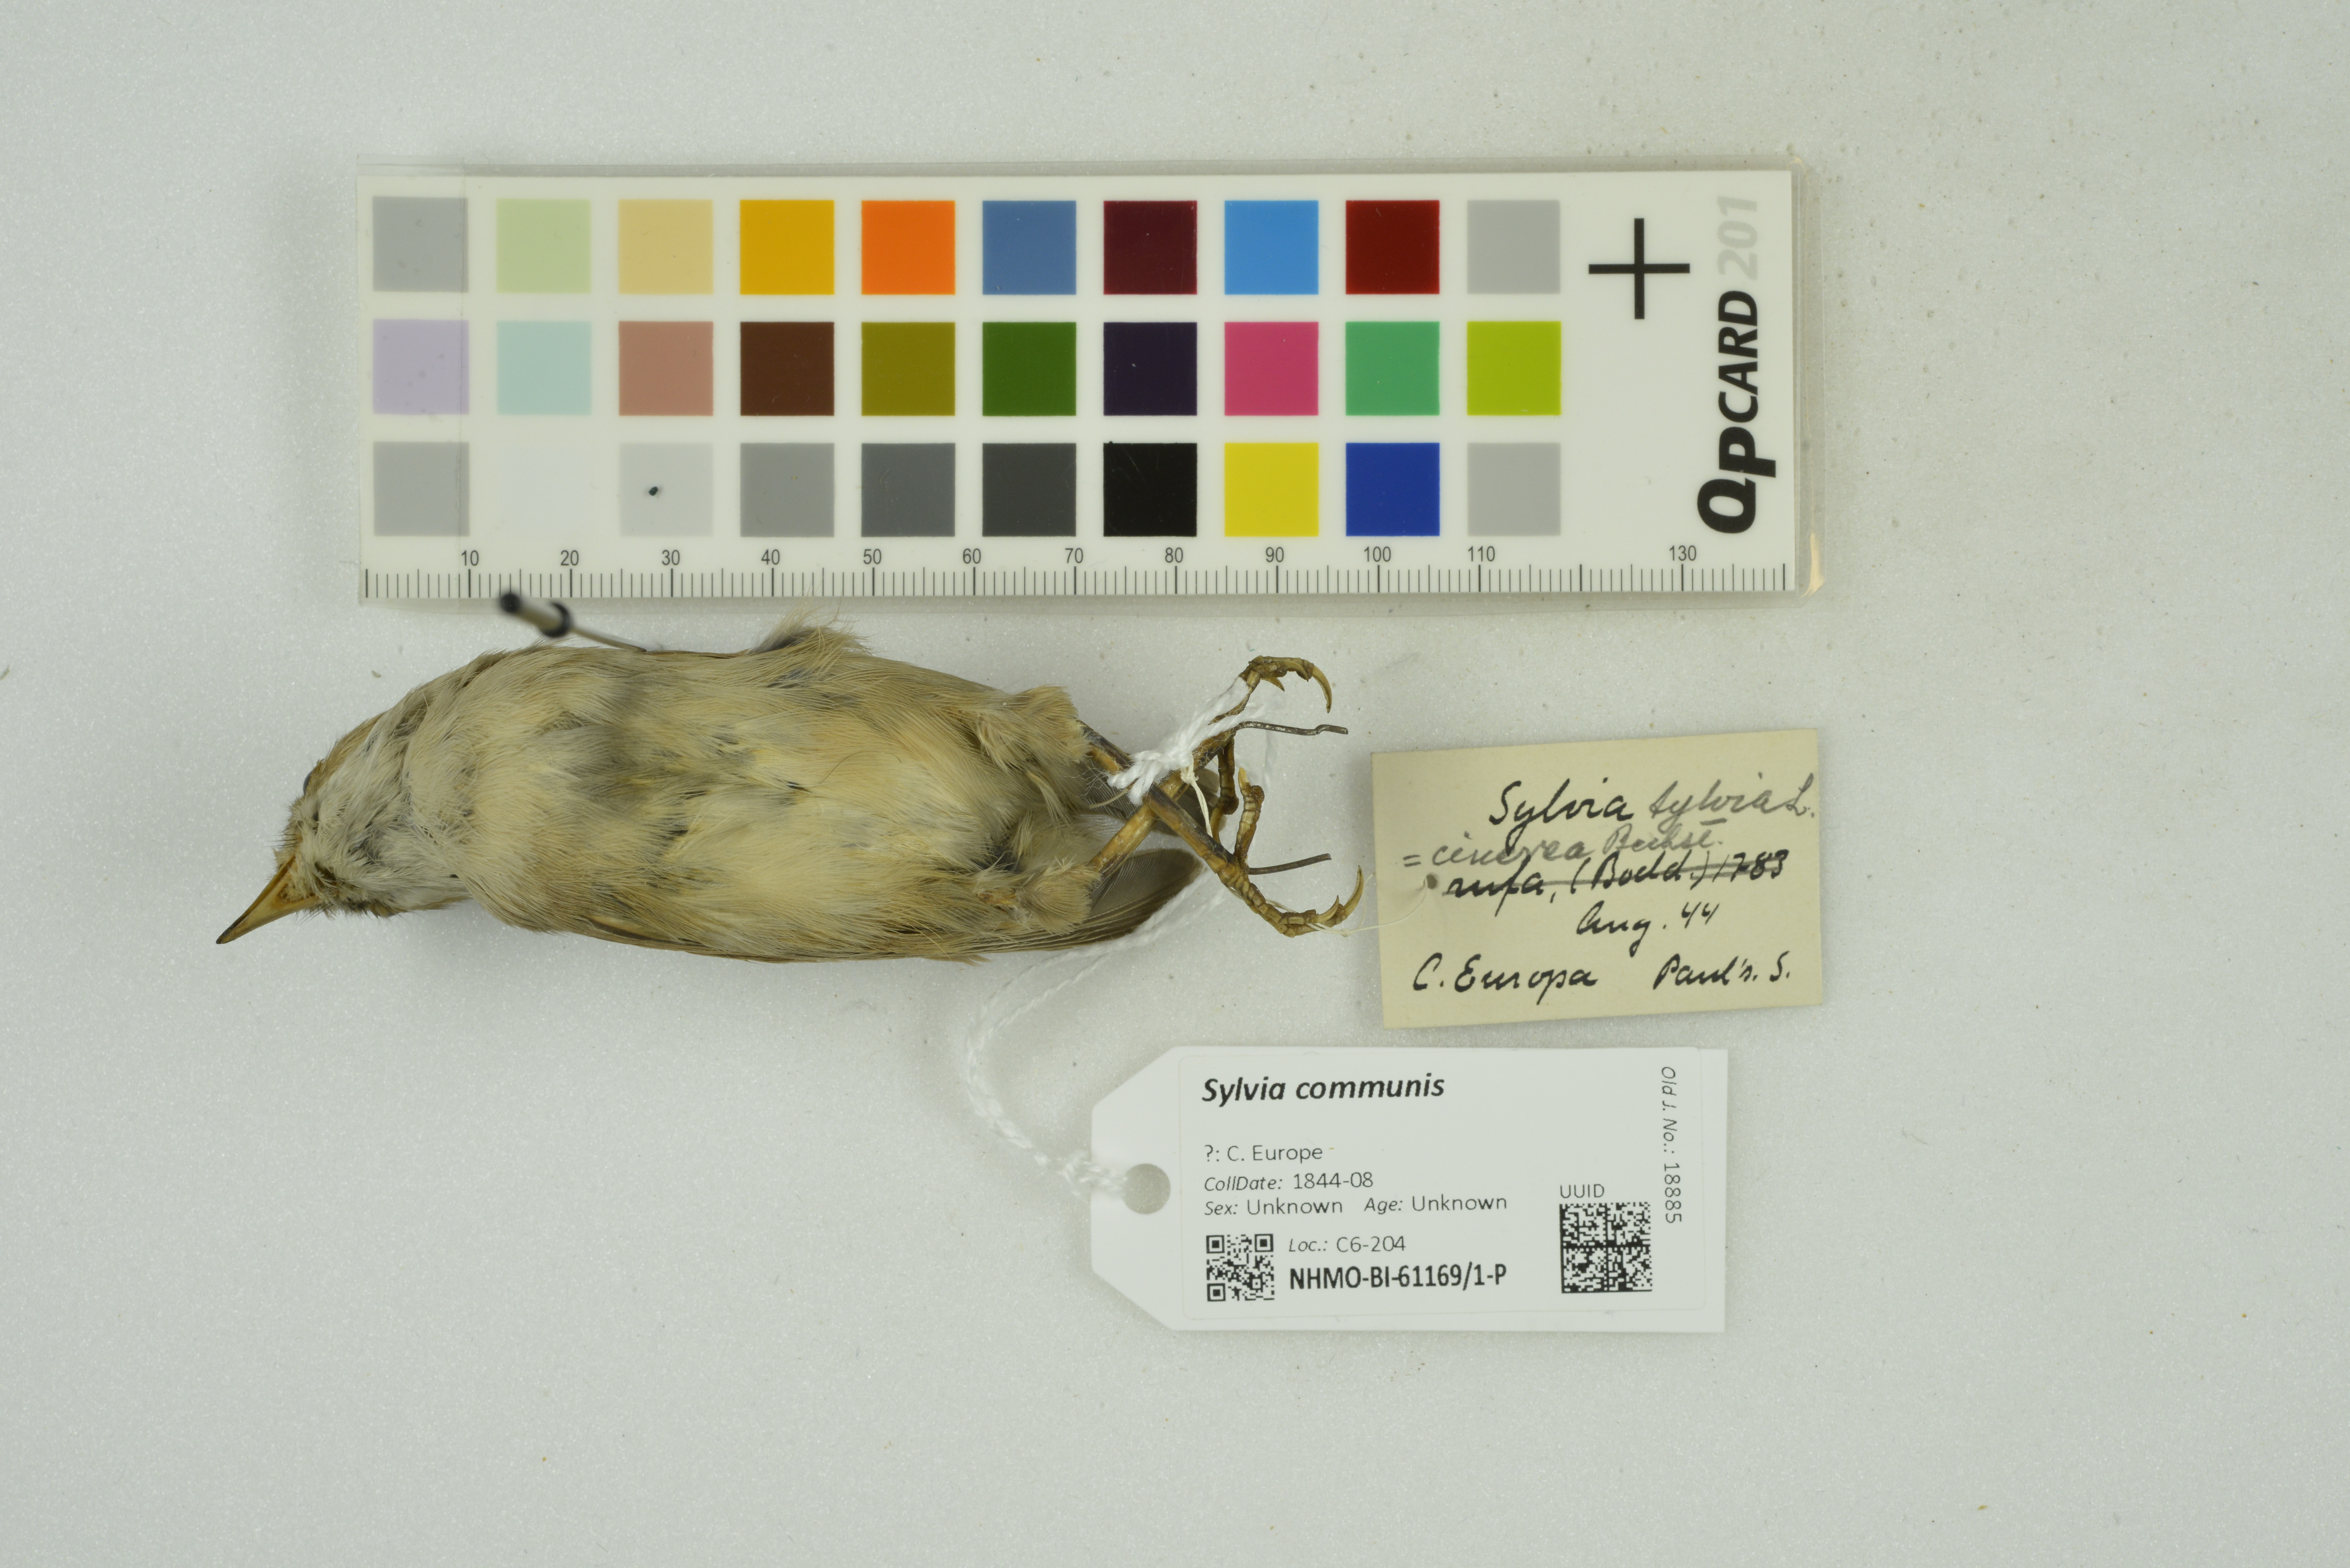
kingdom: Animalia
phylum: Chordata
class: Aves
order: Passeriformes
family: Sylviidae
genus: Sylvia
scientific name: Sylvia communis
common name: Common whitethroat
